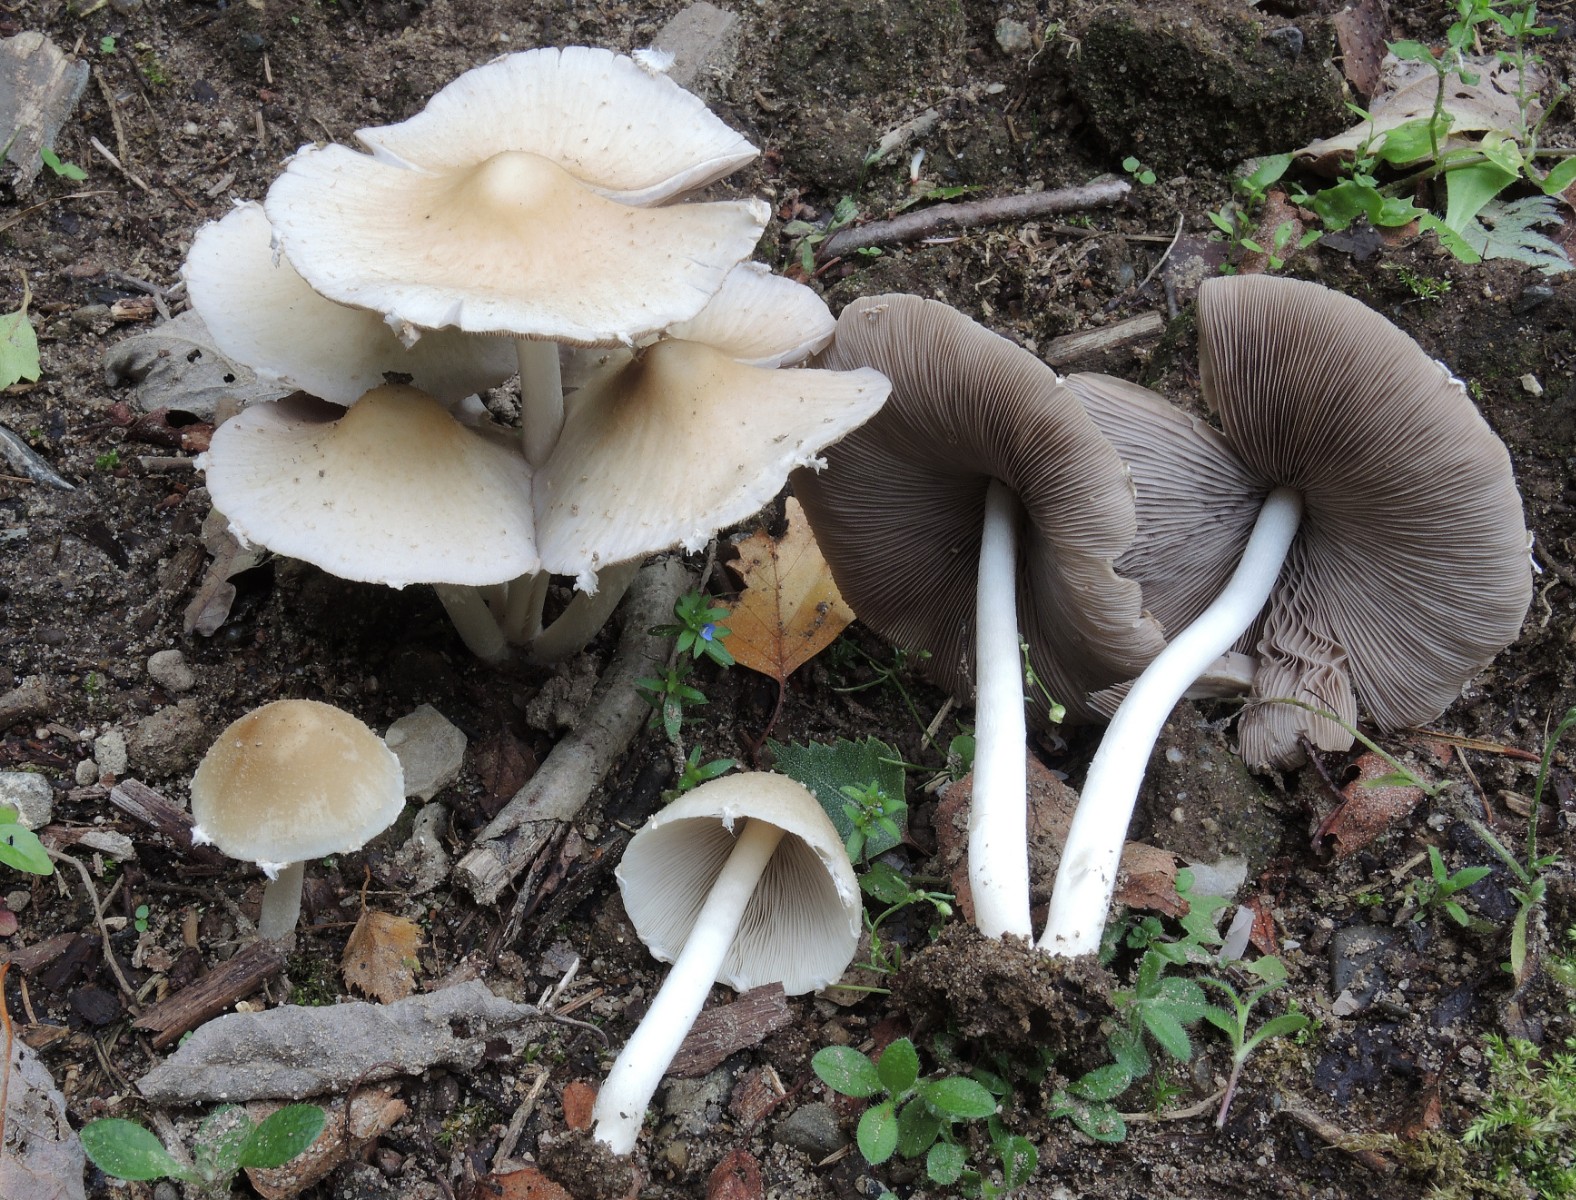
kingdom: Fungi
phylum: Basidiomycota
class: Agaricomycetes
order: Agaricales
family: Psathyrellaceae
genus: Candolleomyces
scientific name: Candolleomyces candolleanus
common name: Candolles mørkhat
